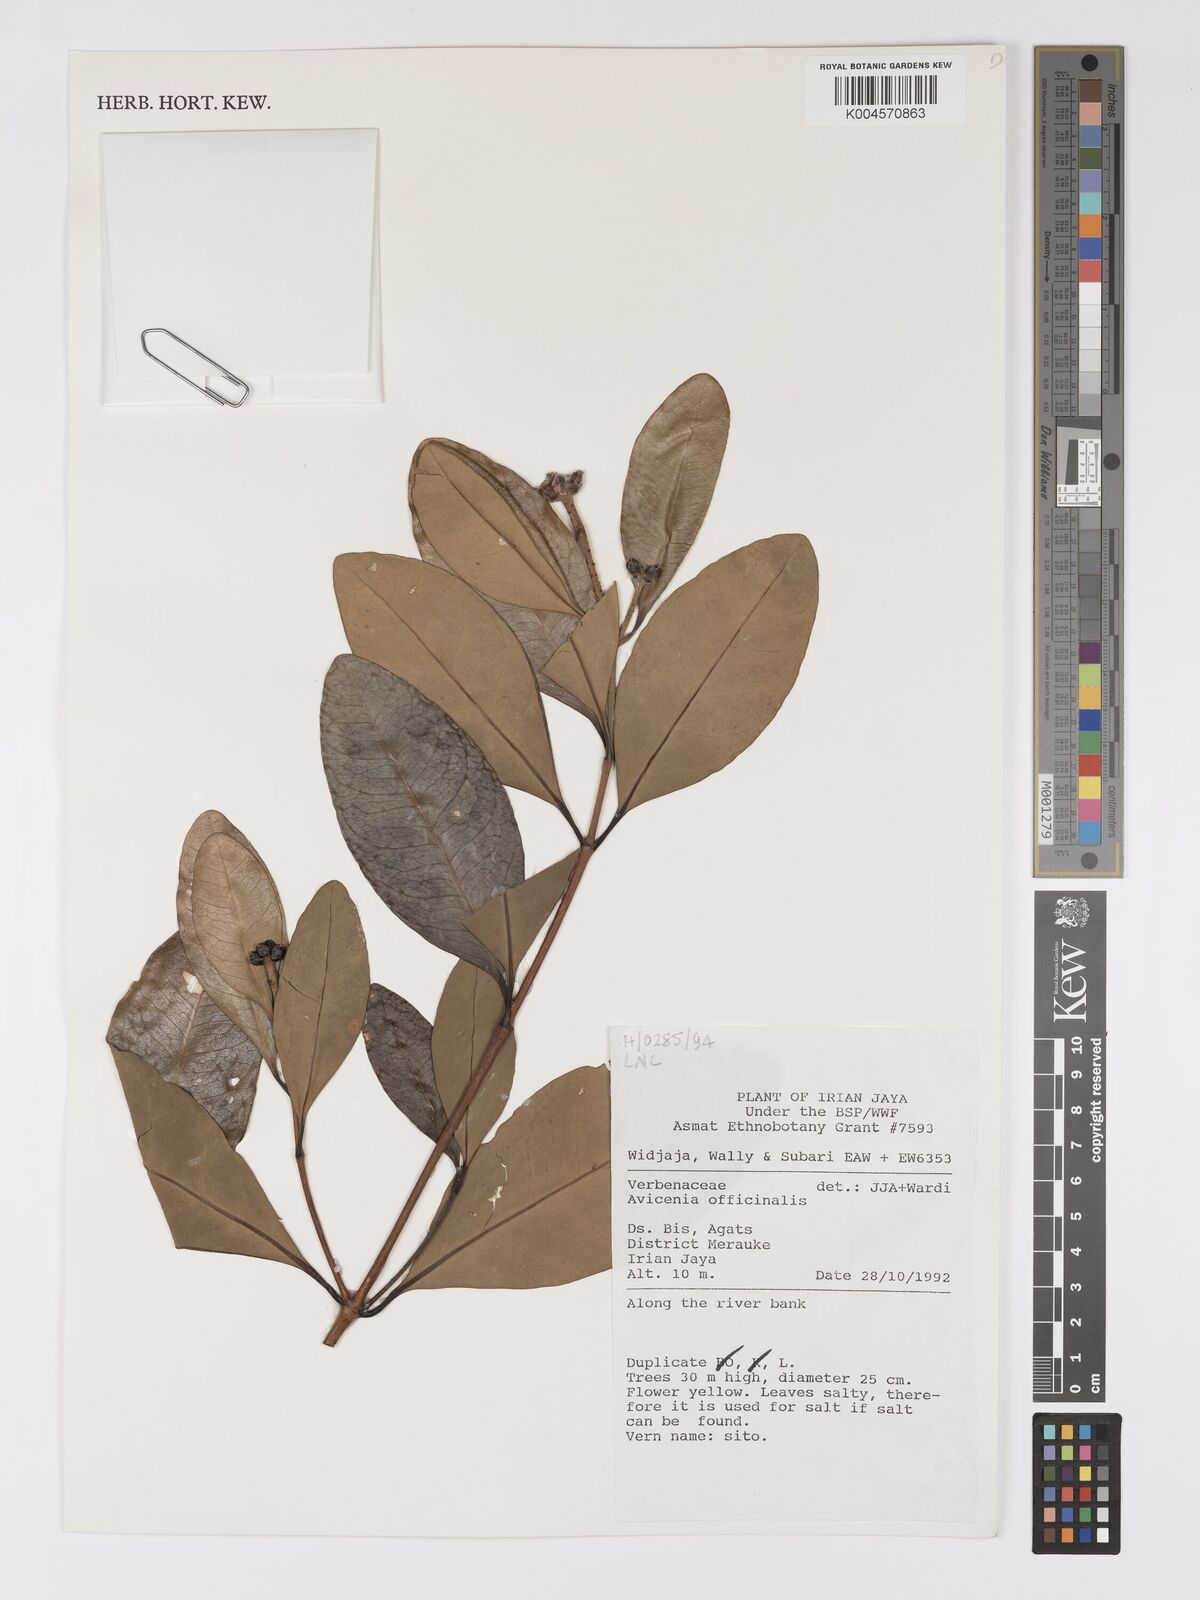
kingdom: Plantae
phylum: Tracheophyta
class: Magnoliopsida
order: Lamiales
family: Acanthaceae
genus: Avicennia
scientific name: Avicennia officinalis
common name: Baen
